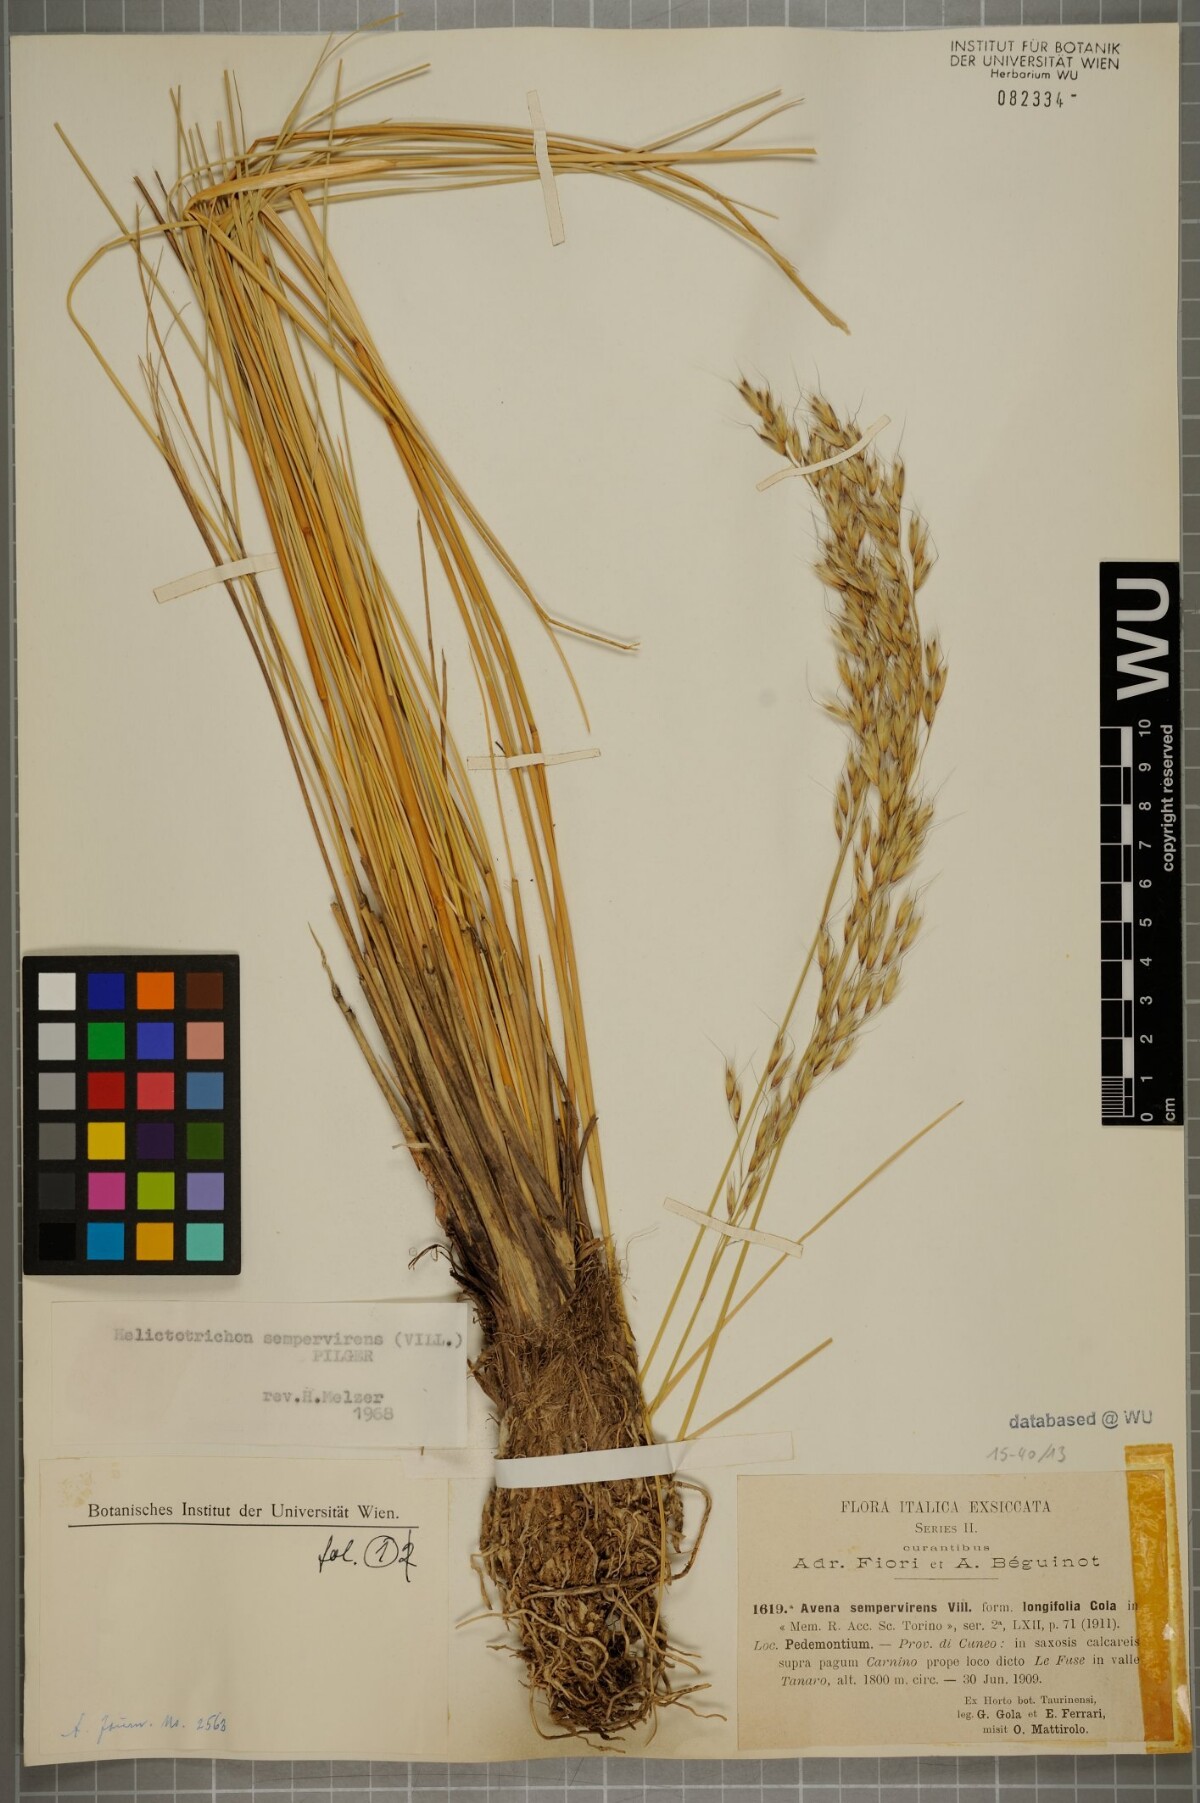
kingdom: Plantae
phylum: Tracheophyta
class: Liliopsida
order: Poales
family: Poaceae
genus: Helictotrichon
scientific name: Helictotrichon sempervirens
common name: Blue oat-grass
